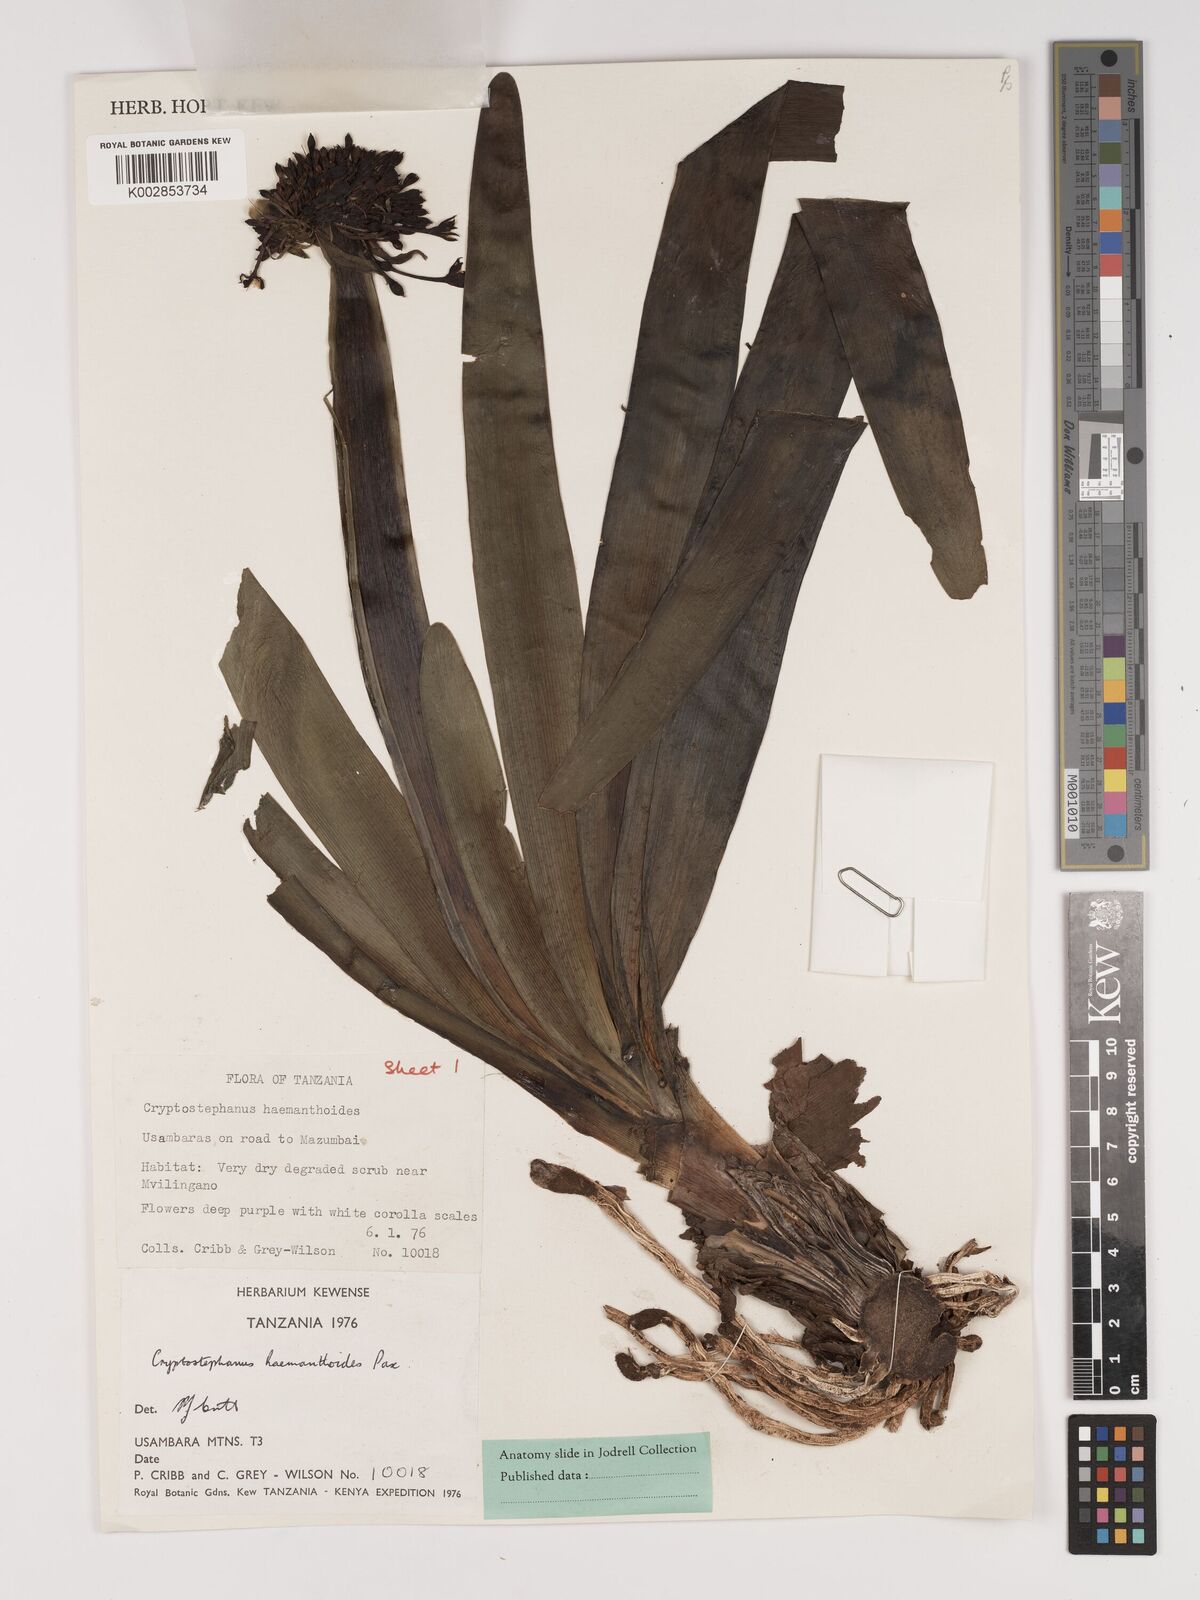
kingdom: Plantae
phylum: Tracheophyta
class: Liliopsida
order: Asparagales
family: Amaryllidaceae
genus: Cryptostephanus
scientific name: Cryptostephanus haemanthoides
